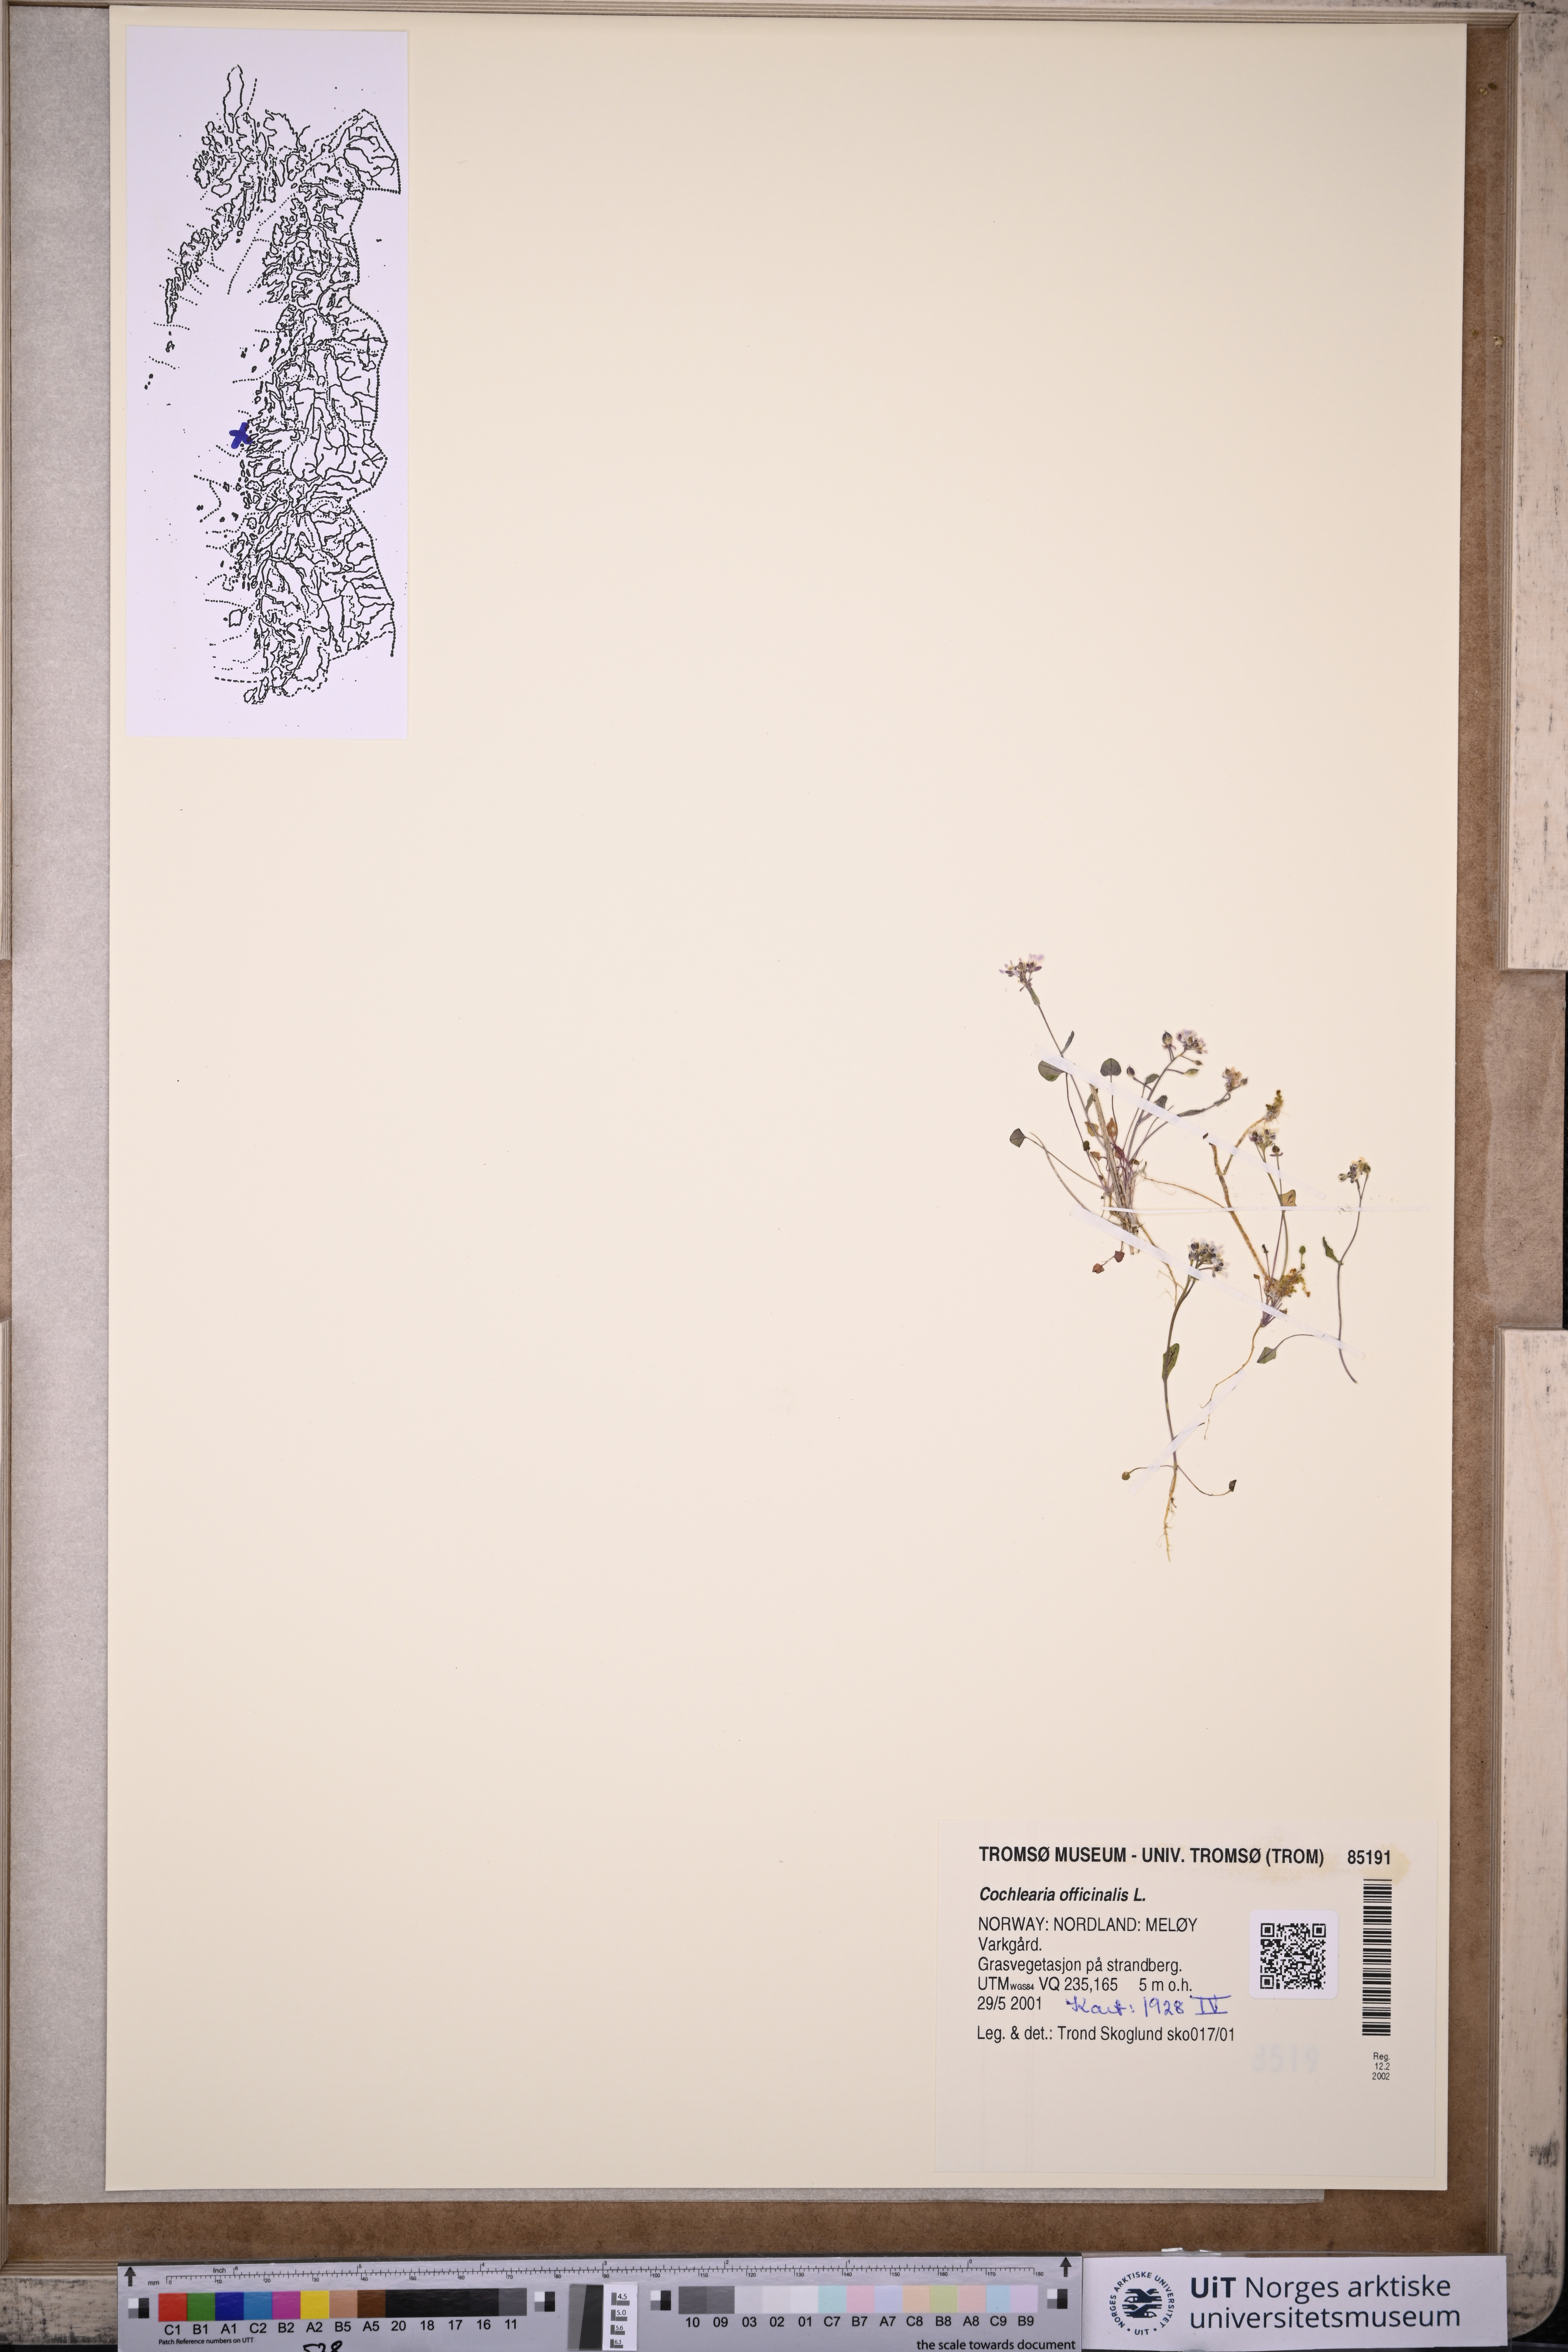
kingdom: Plantae
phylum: Tracheophyta
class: Magnoliopsida
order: Brassicales
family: Brassicaceae
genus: Cochlearia
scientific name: Cochlearia officinalis
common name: Scurvy-grass
